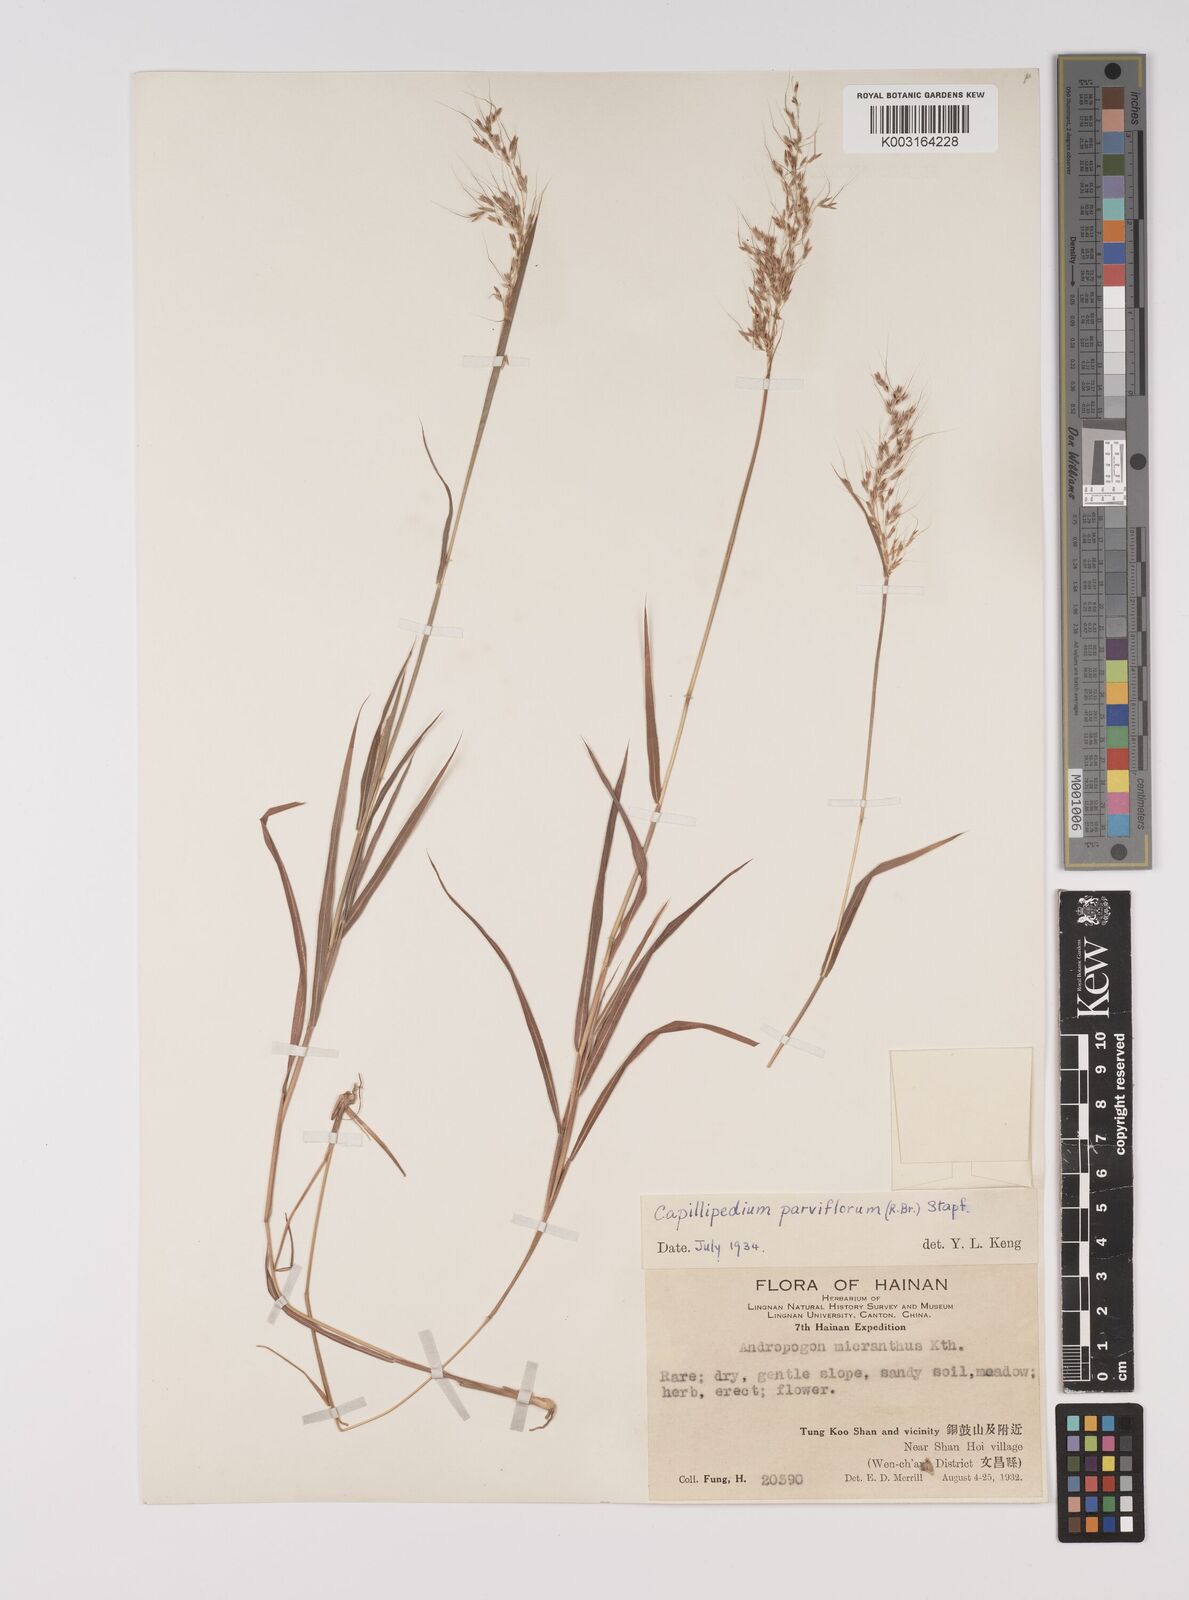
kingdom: Plantae
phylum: Tracheophyta
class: Liliopsida
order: Poales
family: Poaceae
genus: Capillipedium
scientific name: Capillipedium parviflorum
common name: Golden-beard
